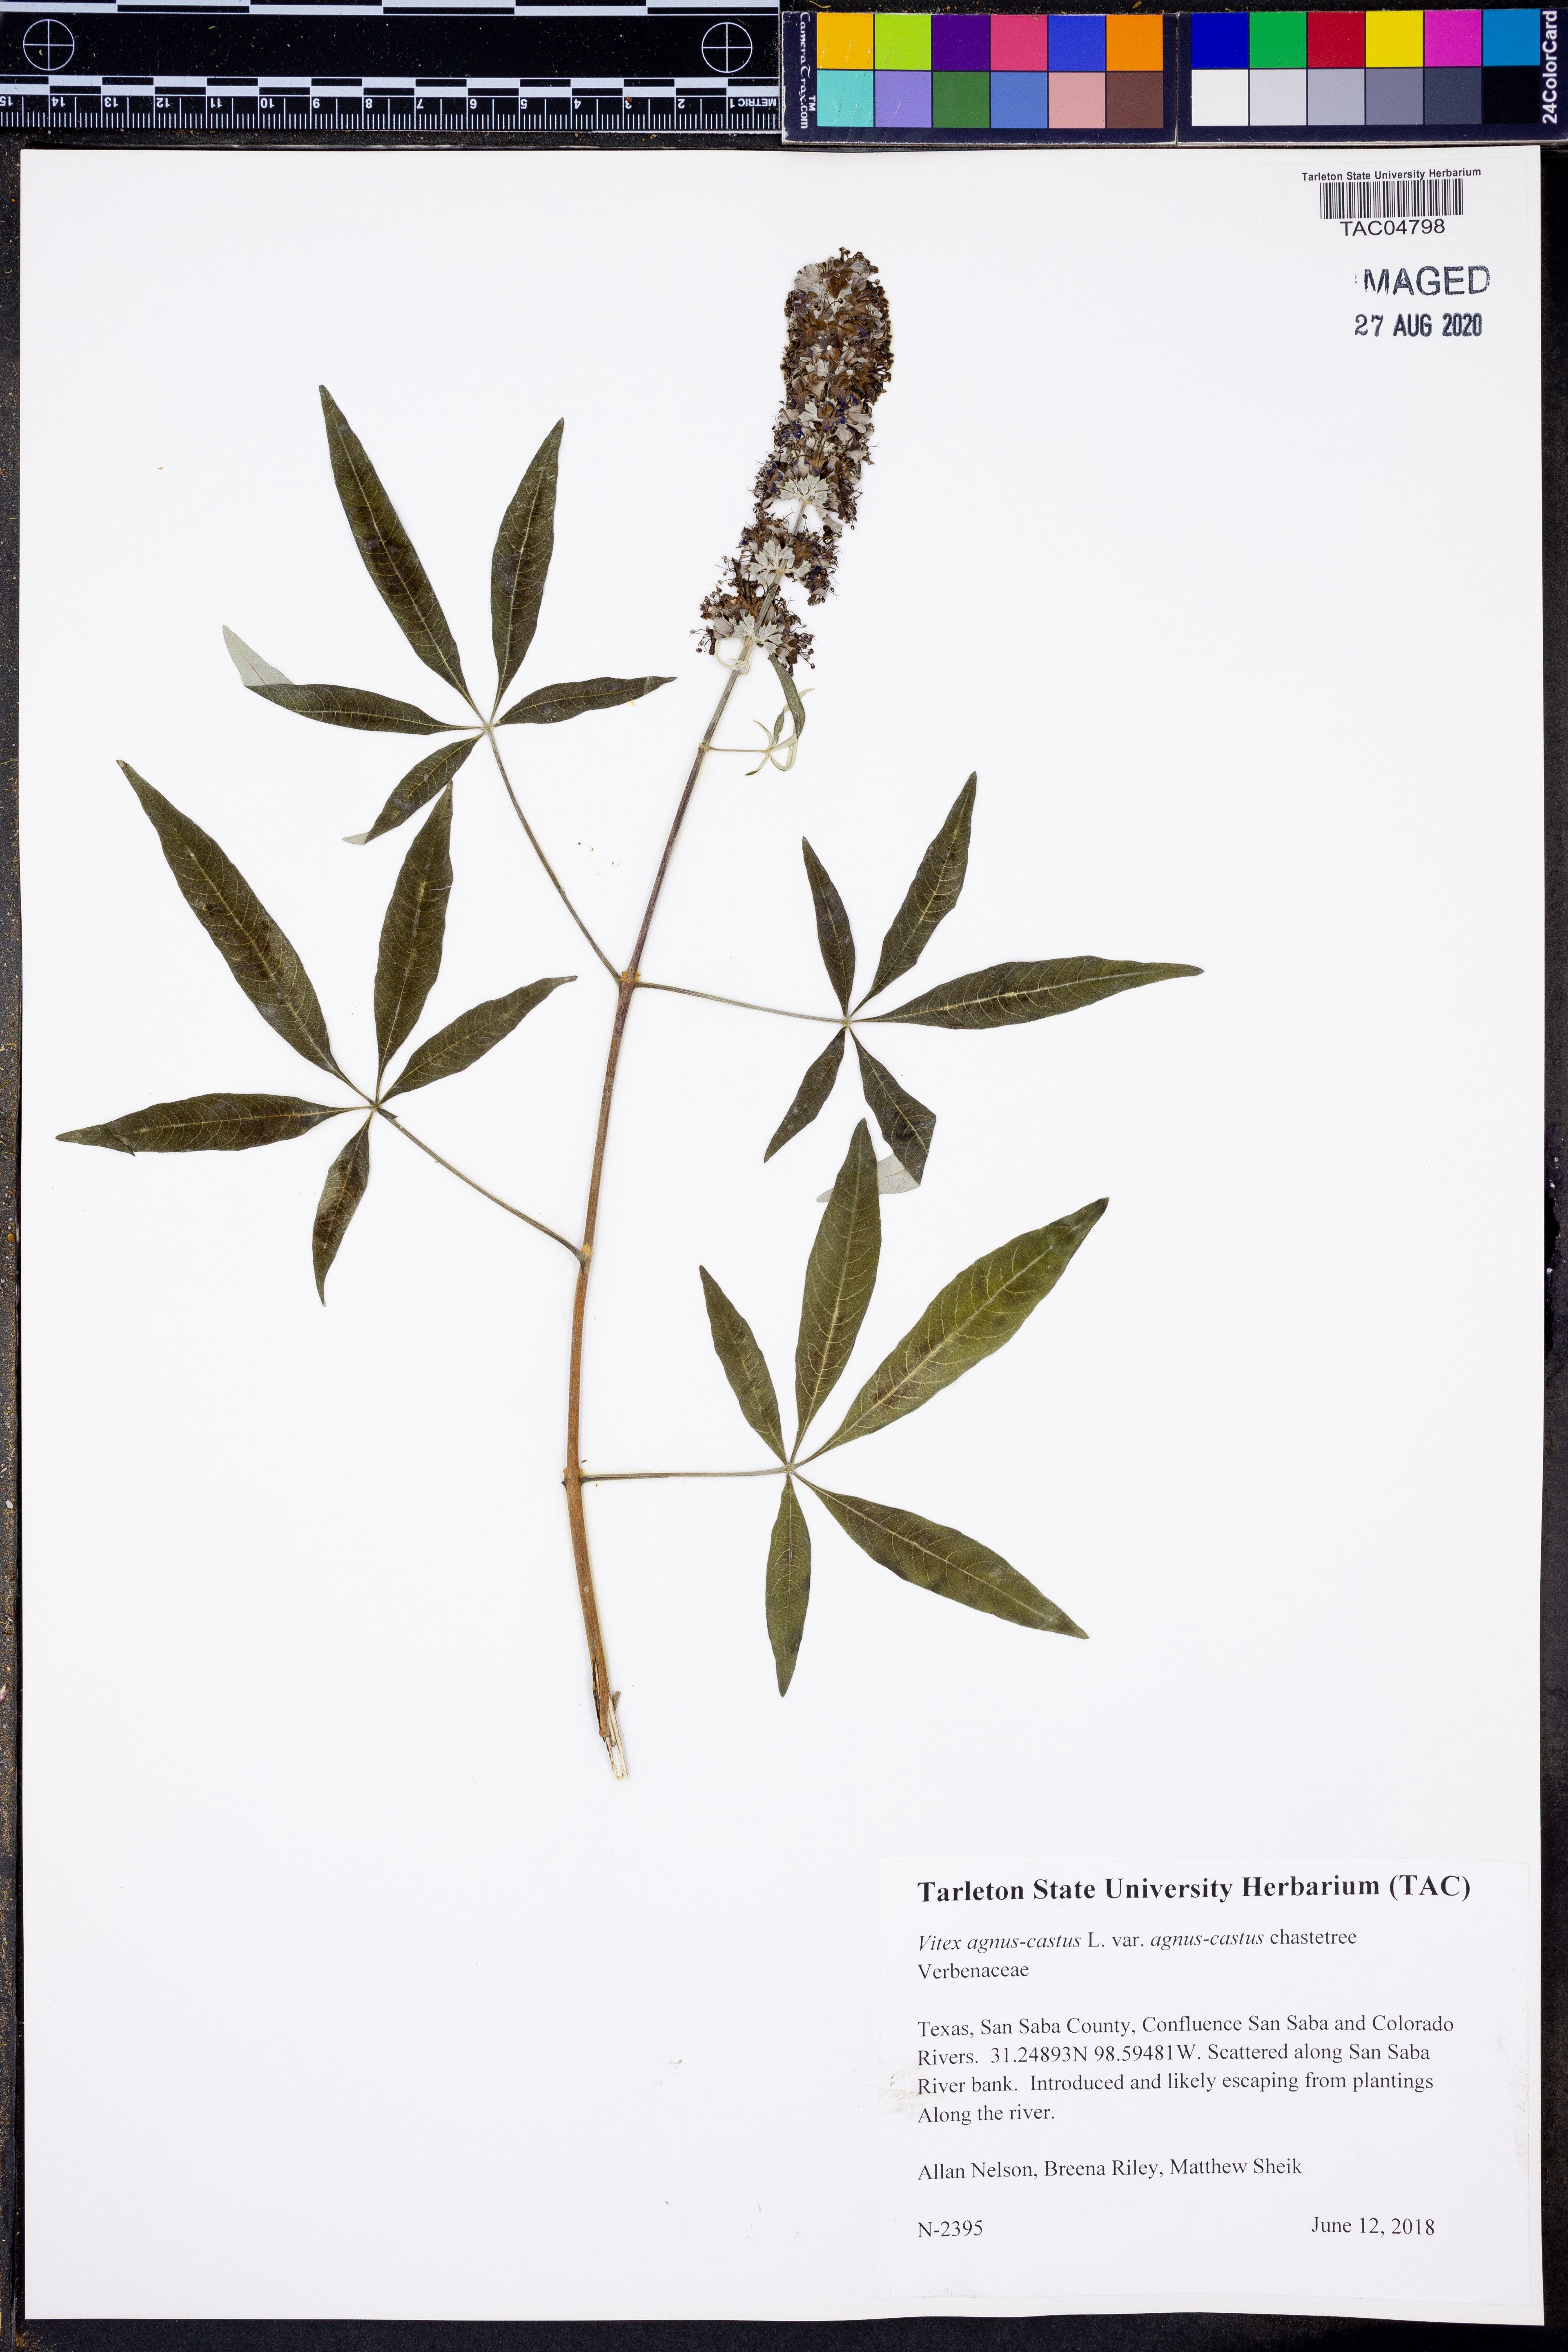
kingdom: Plantae
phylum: Tracheophyta
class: Magnoliopsida
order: Lamiales
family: Lamiaceae
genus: Vitex
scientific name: Vitex agnus-castus
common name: Chasteberry
